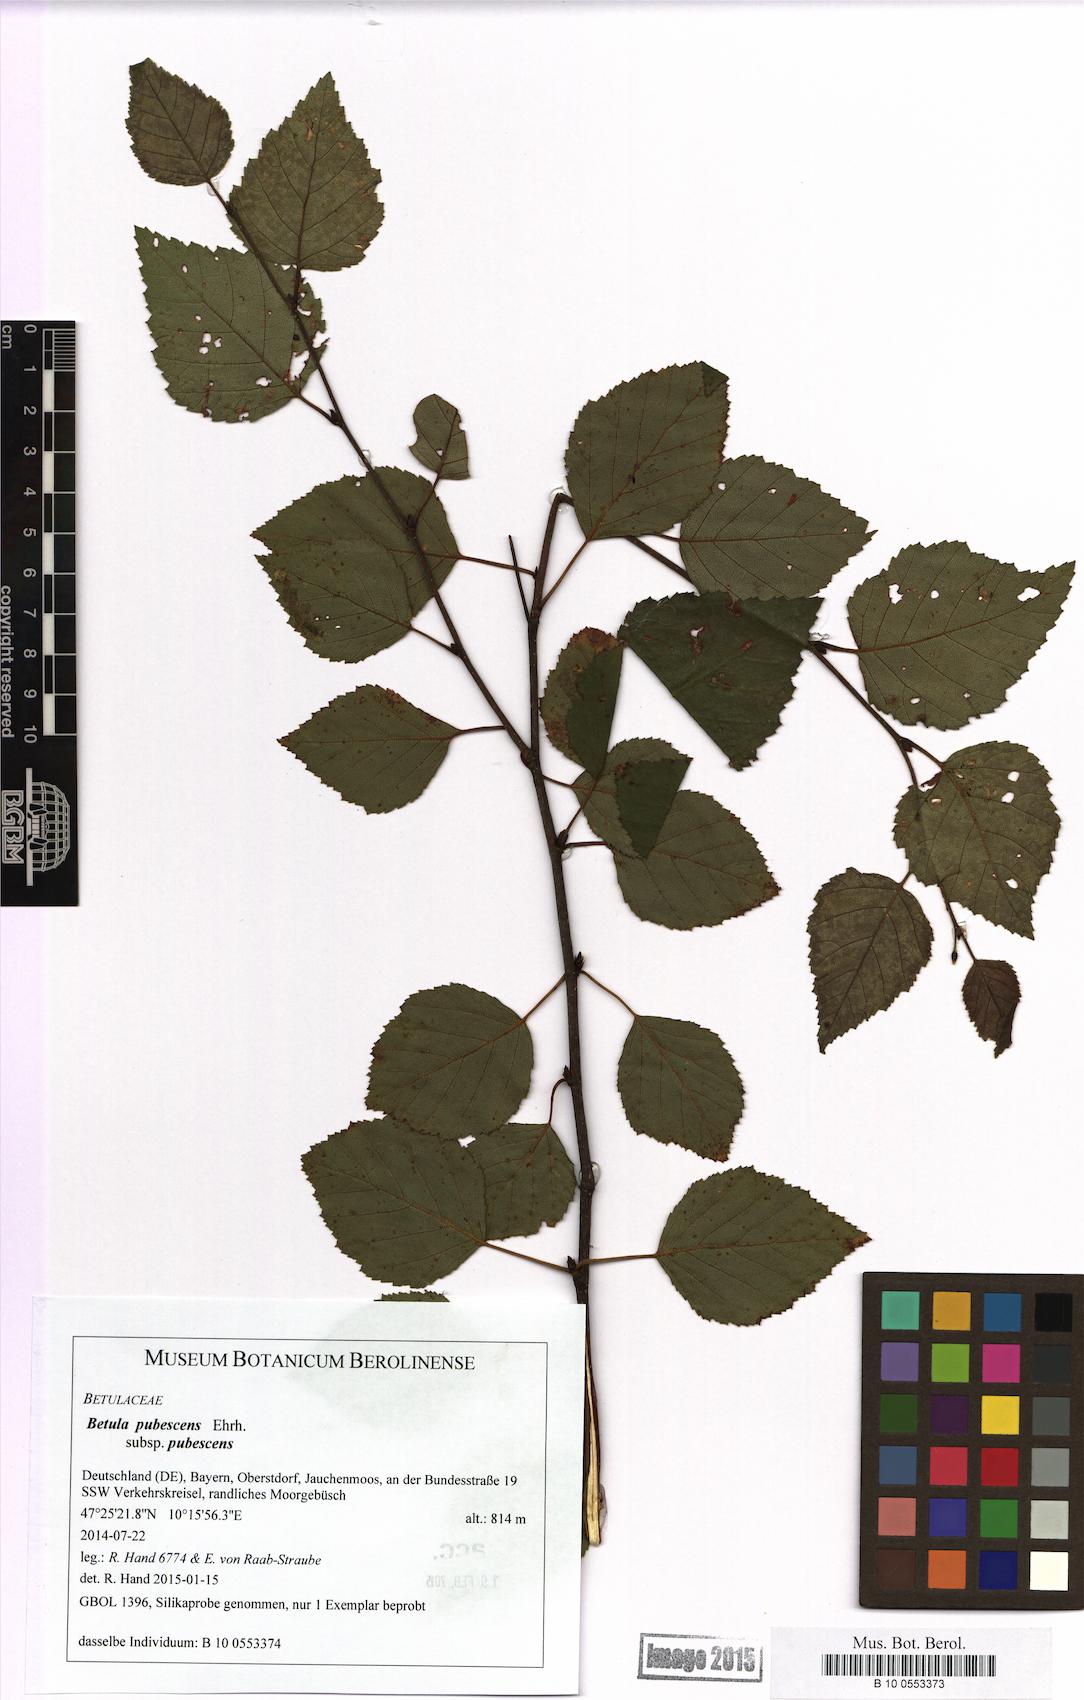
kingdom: Plantae
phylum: Tracheophyta
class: Magnoliopsida
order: Fagales
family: Betulaceae
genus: Betula
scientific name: Betula pubescens
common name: Downy birch
